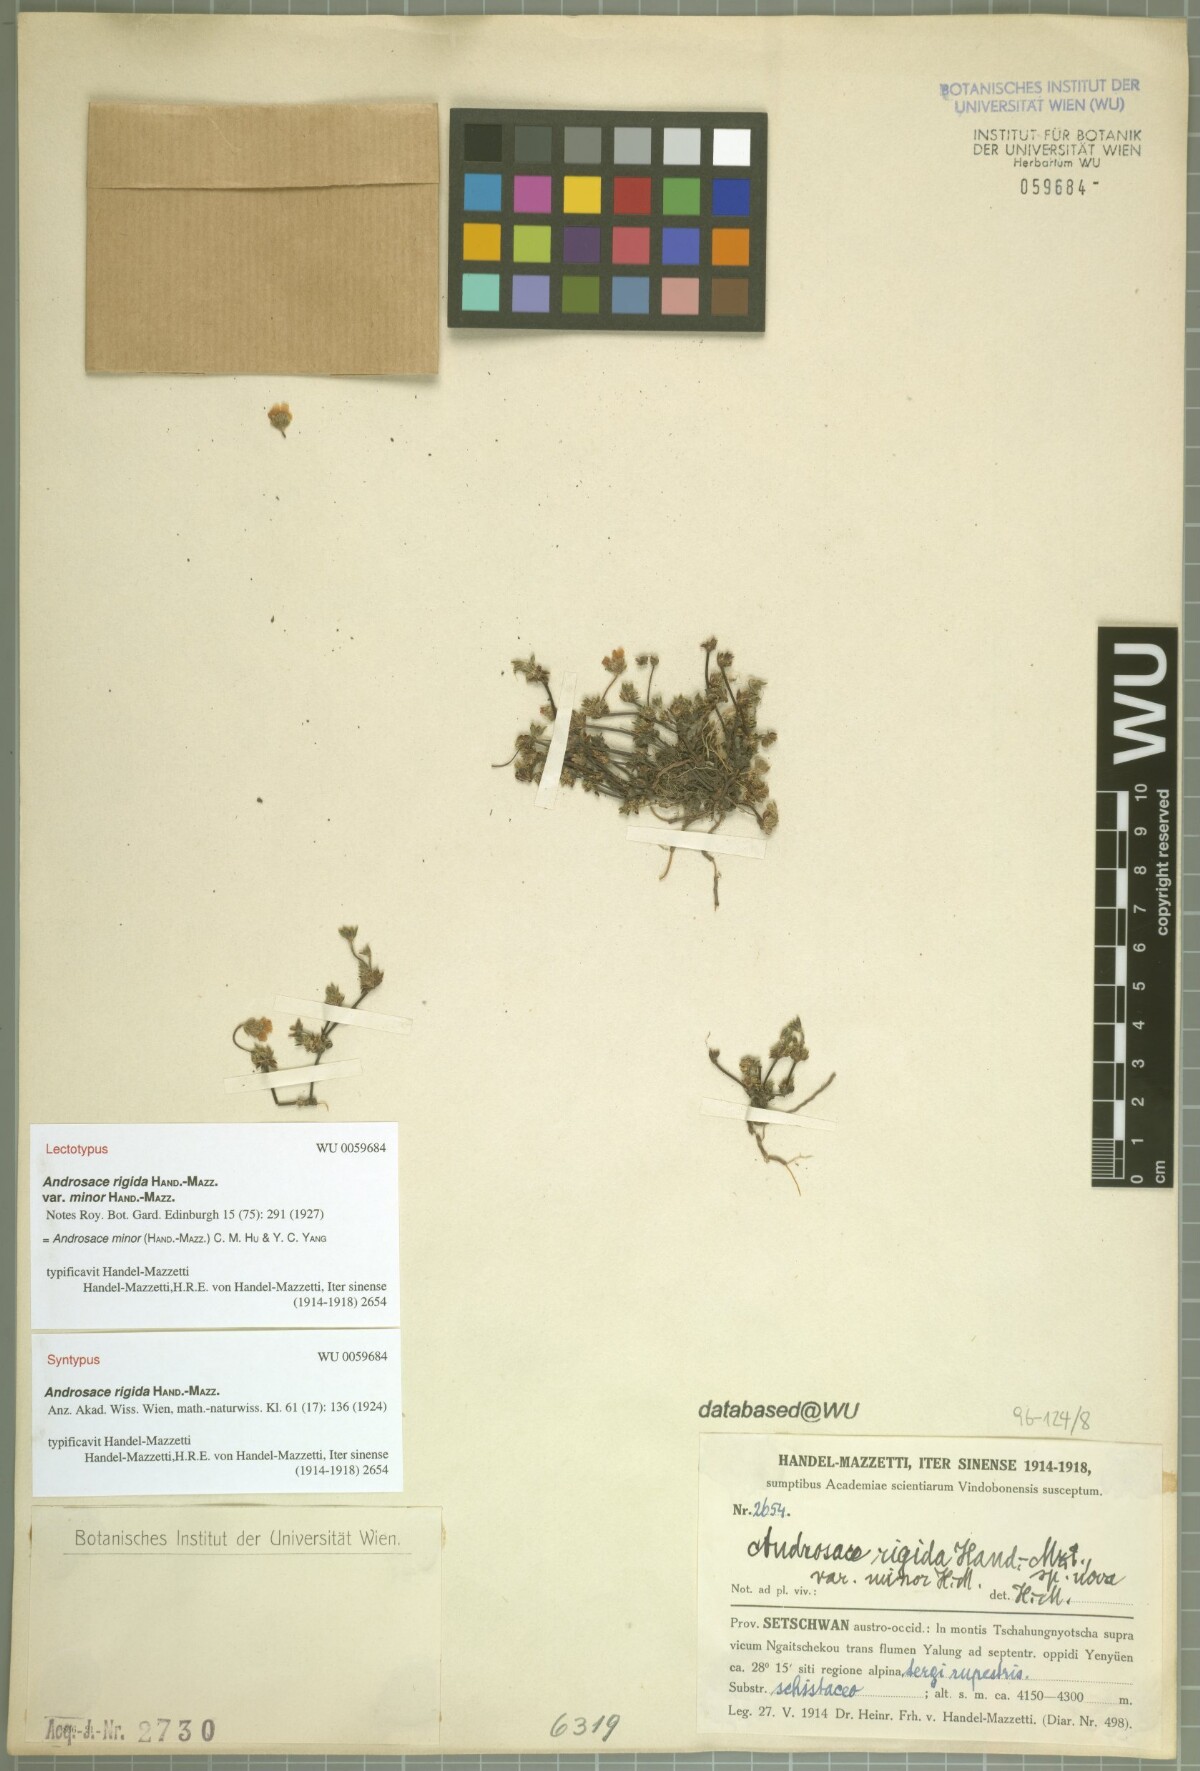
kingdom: Plantae
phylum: Tracheophyta
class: Magnoliopsida
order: Ericales
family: Primulaceae
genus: Androsace
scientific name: Androsace minor
